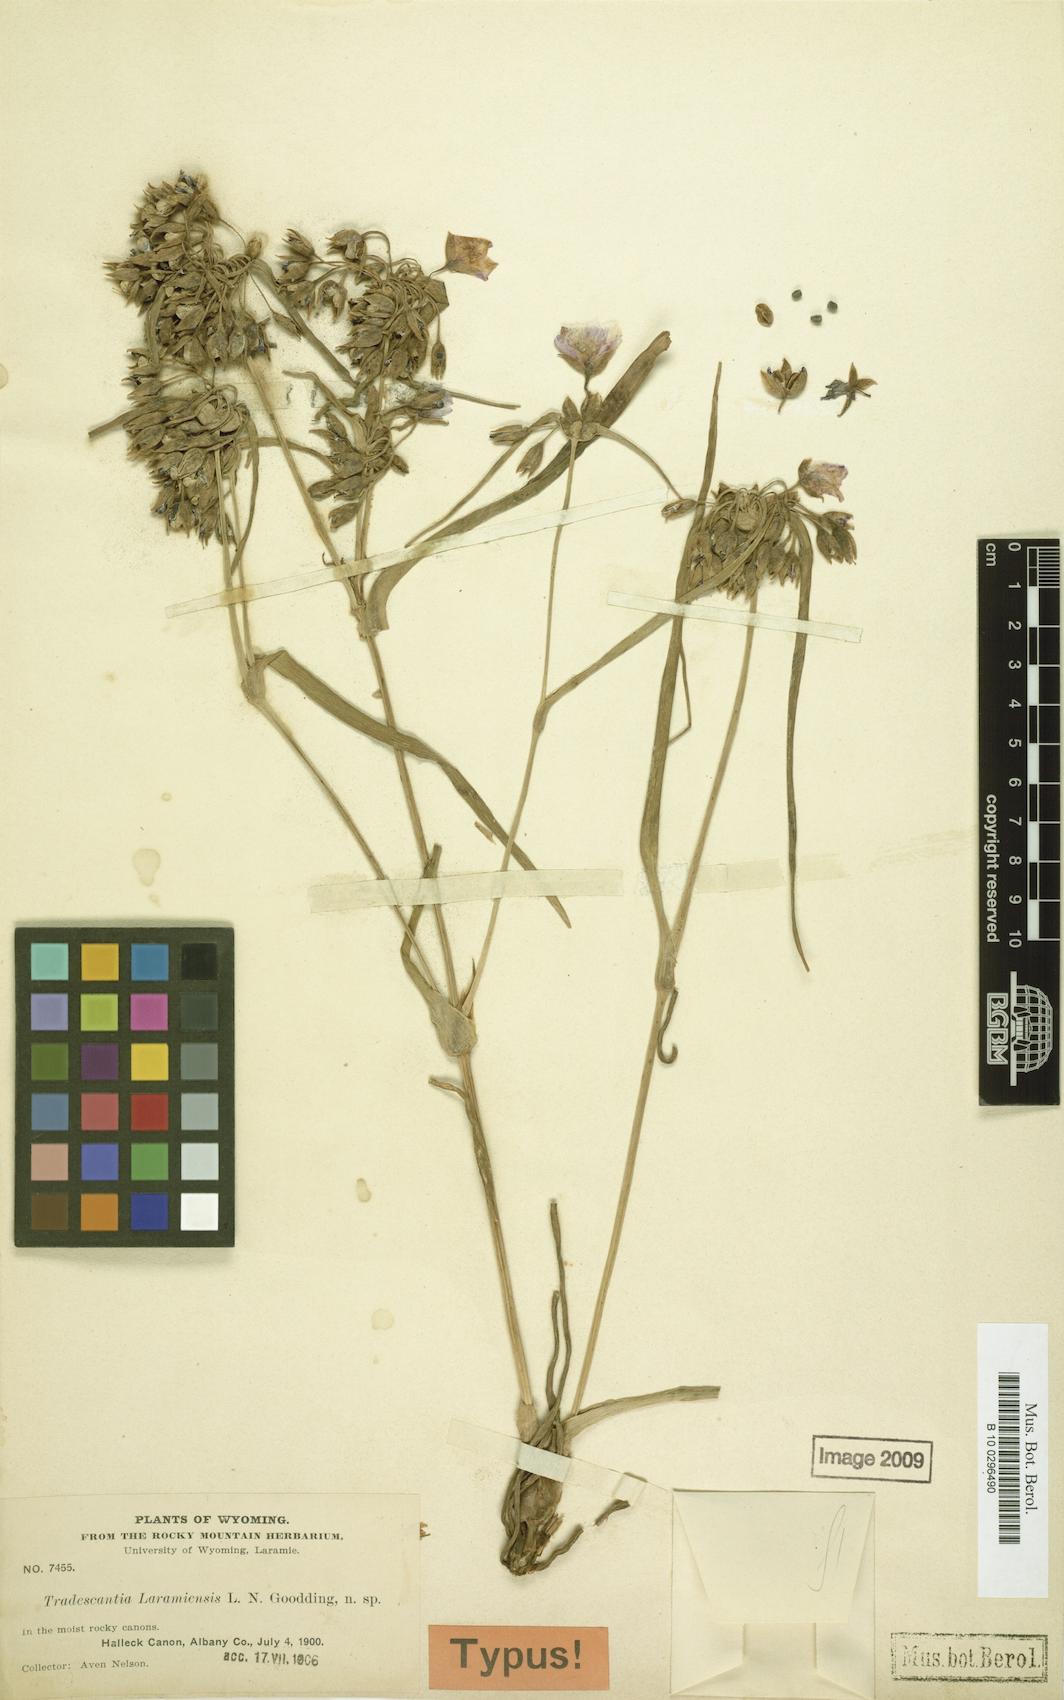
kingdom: Plantae
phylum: Tracheophyta
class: Liliopsida
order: Commelinales
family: Commelinaceae
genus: Tradescantia
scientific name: Tradescantia occidentalis
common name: Prairie spiderwort
